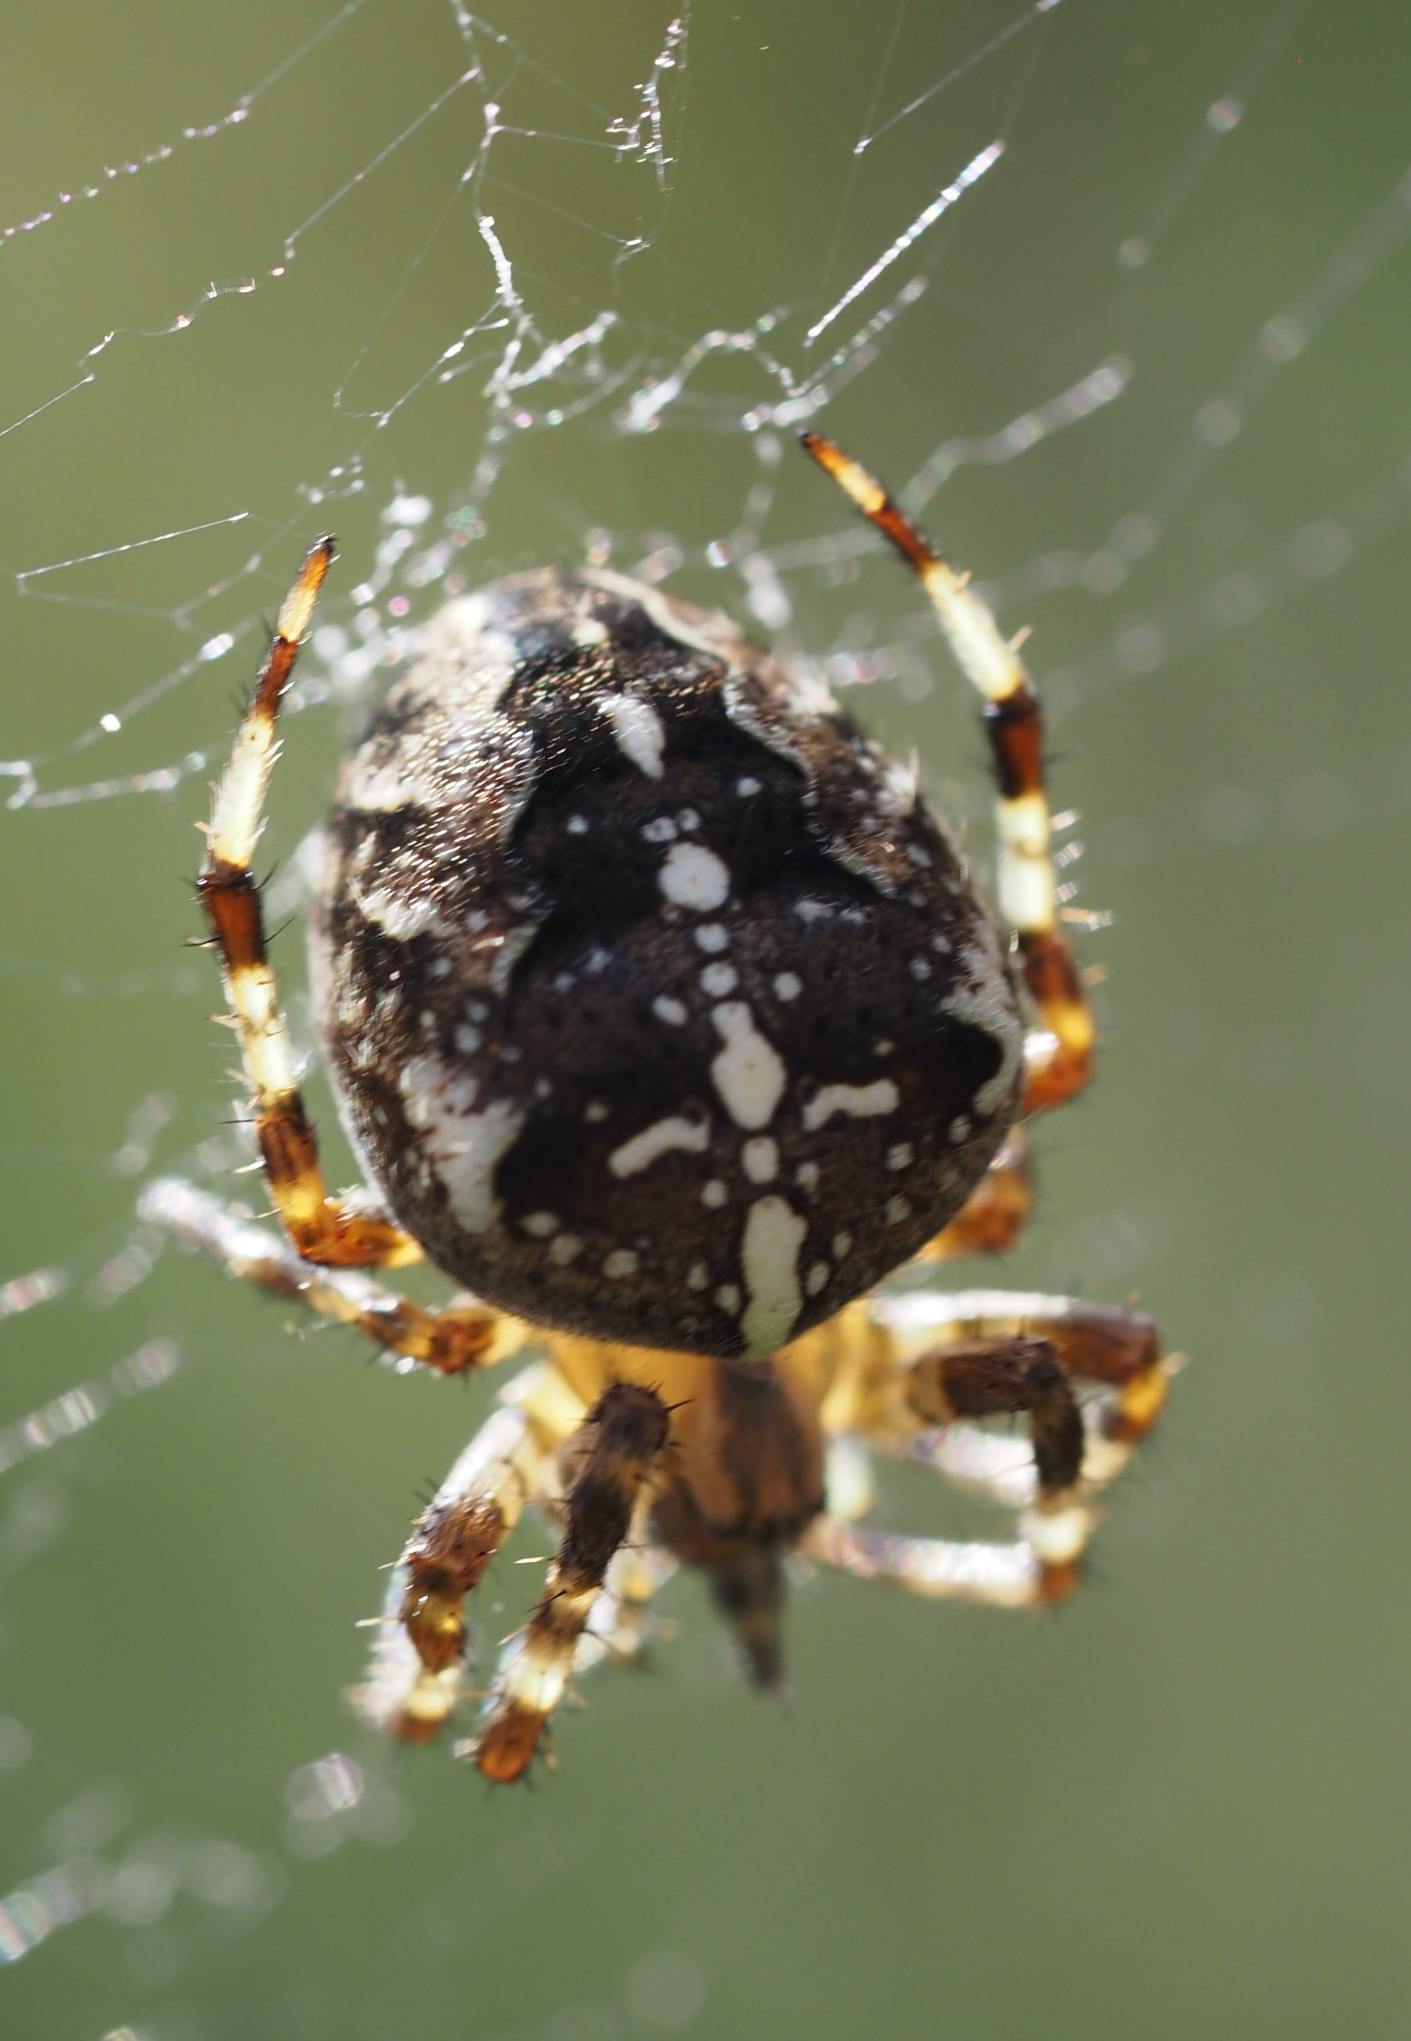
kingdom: Animalia
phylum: Arthropoda
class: Arachnida
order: Araneae
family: Araneidae
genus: Araneus
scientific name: Araneus diadematus
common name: Korsedderkop
